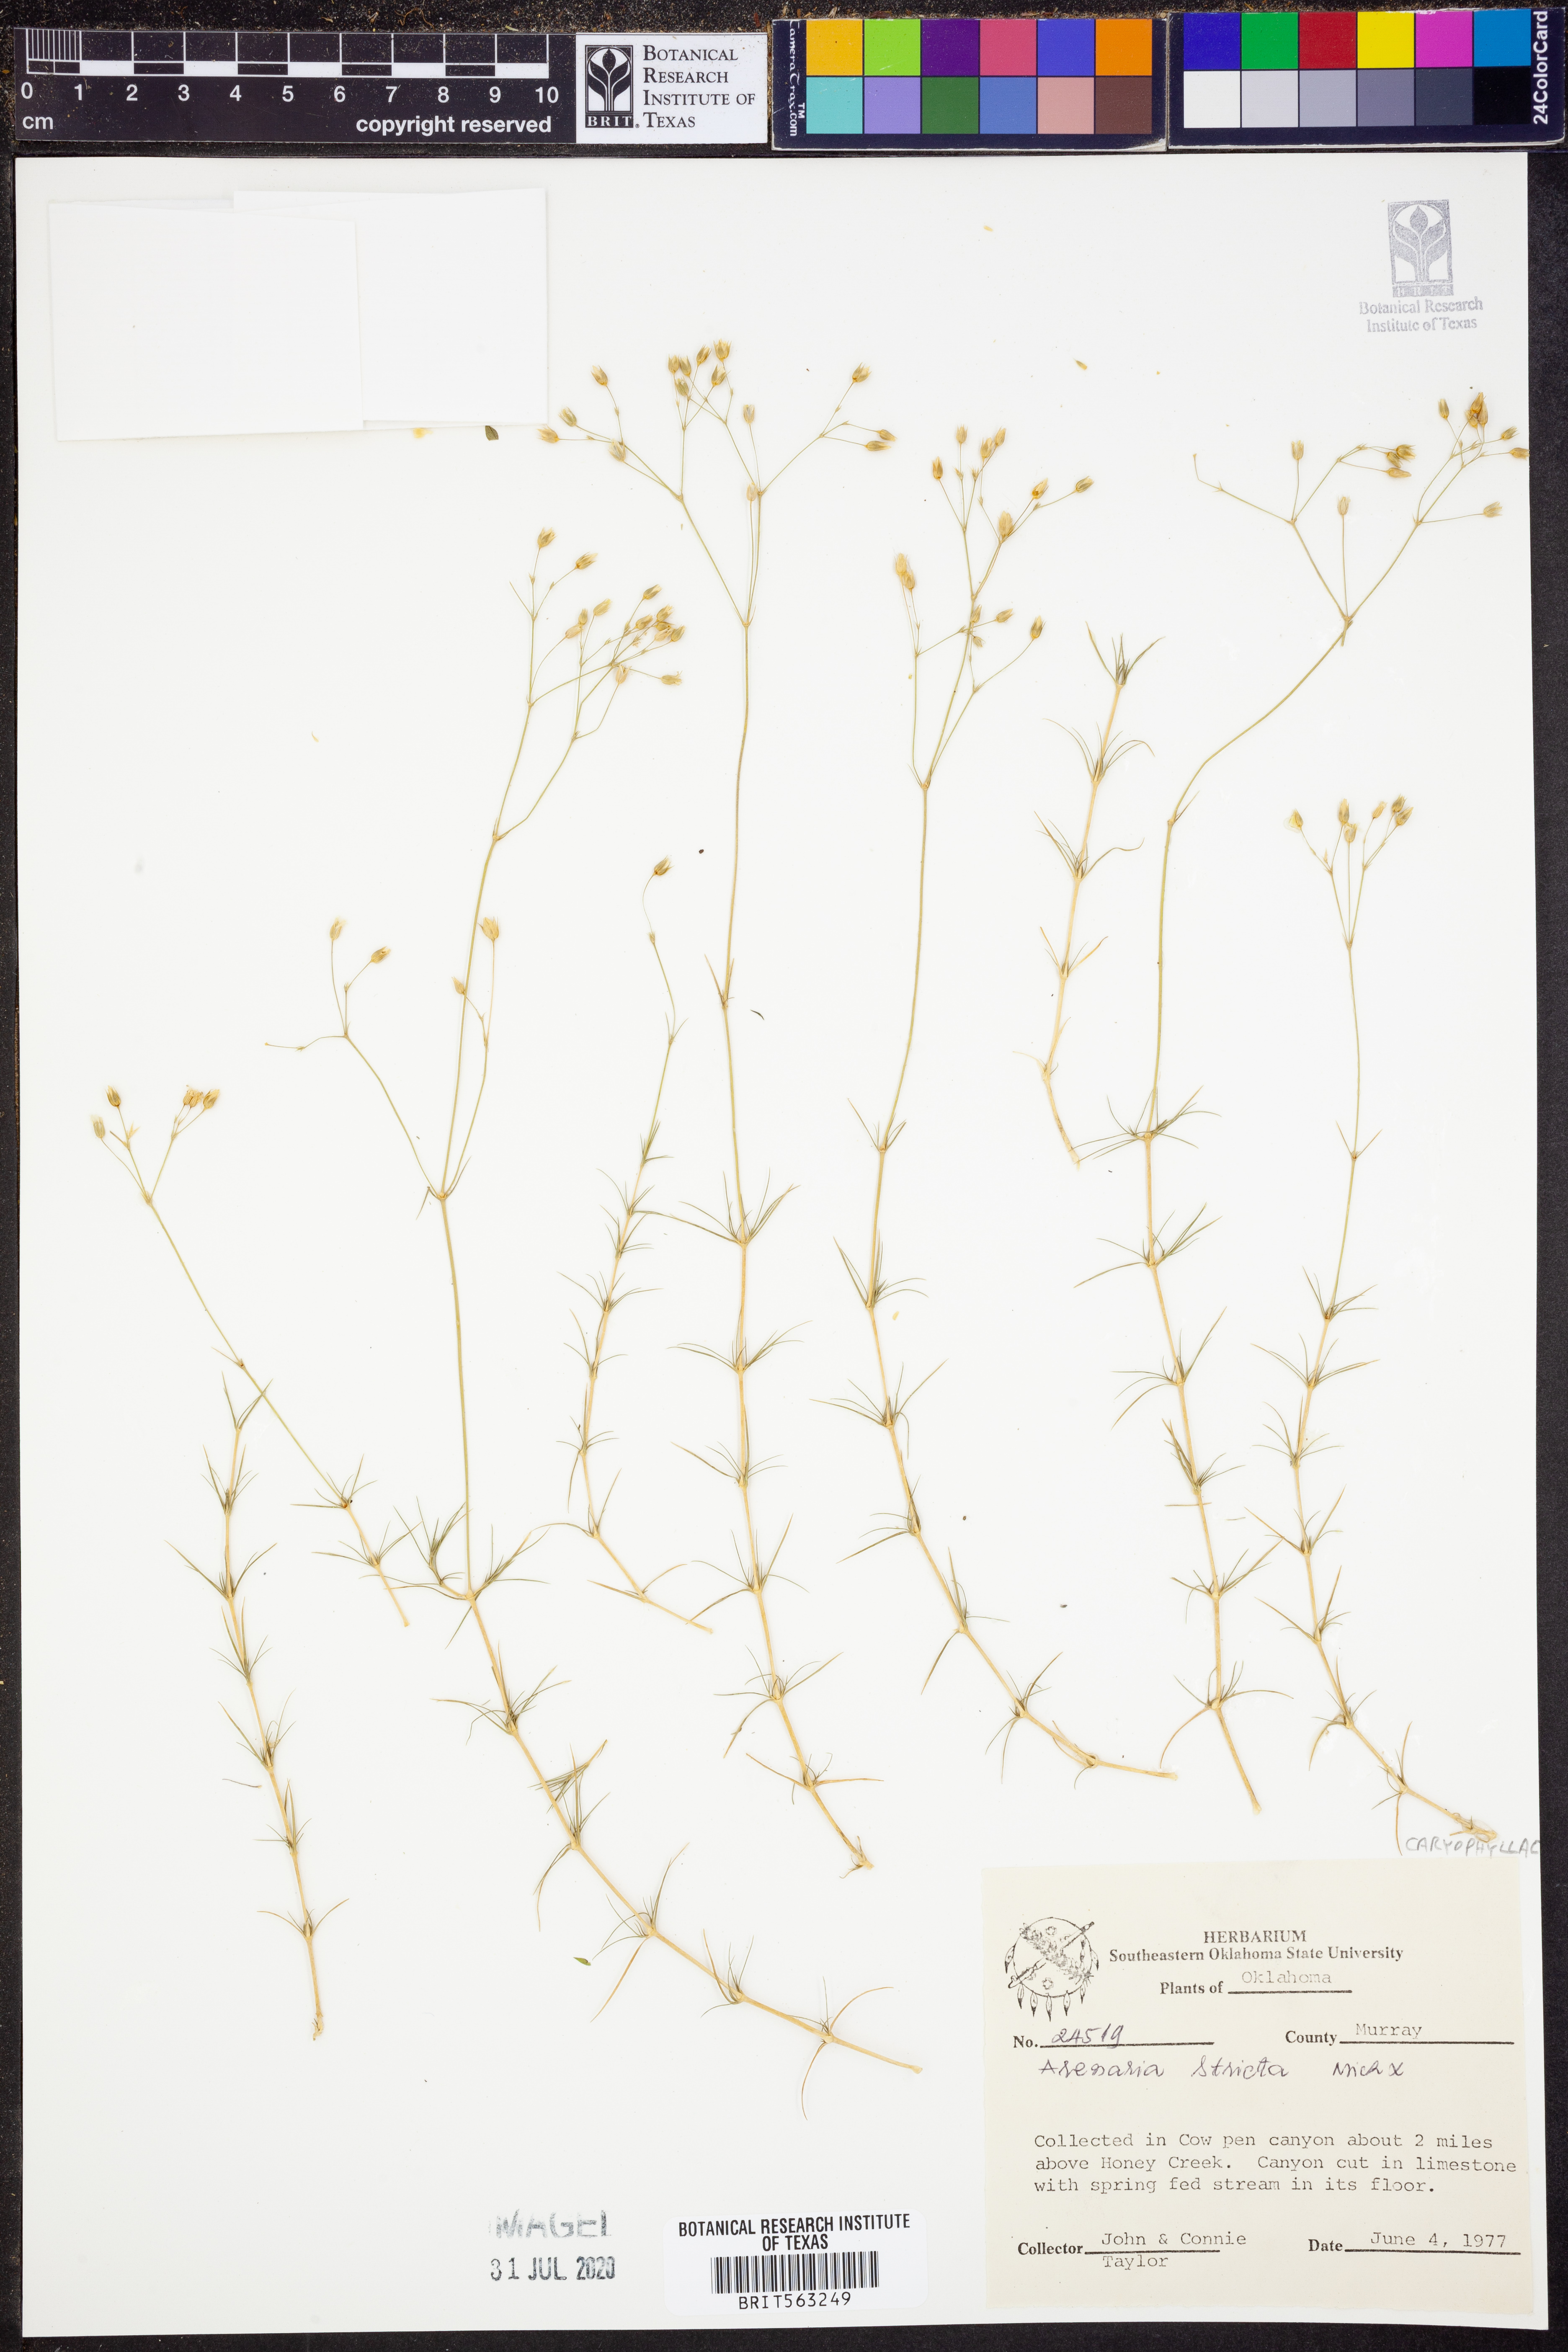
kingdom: Plantae
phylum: Tracheophyta
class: Magnoliopsida
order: Caryophyllales
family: Caryophyllaceae
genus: Sabulina
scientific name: Sabulina michauxii
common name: Michaux's stitchwort
